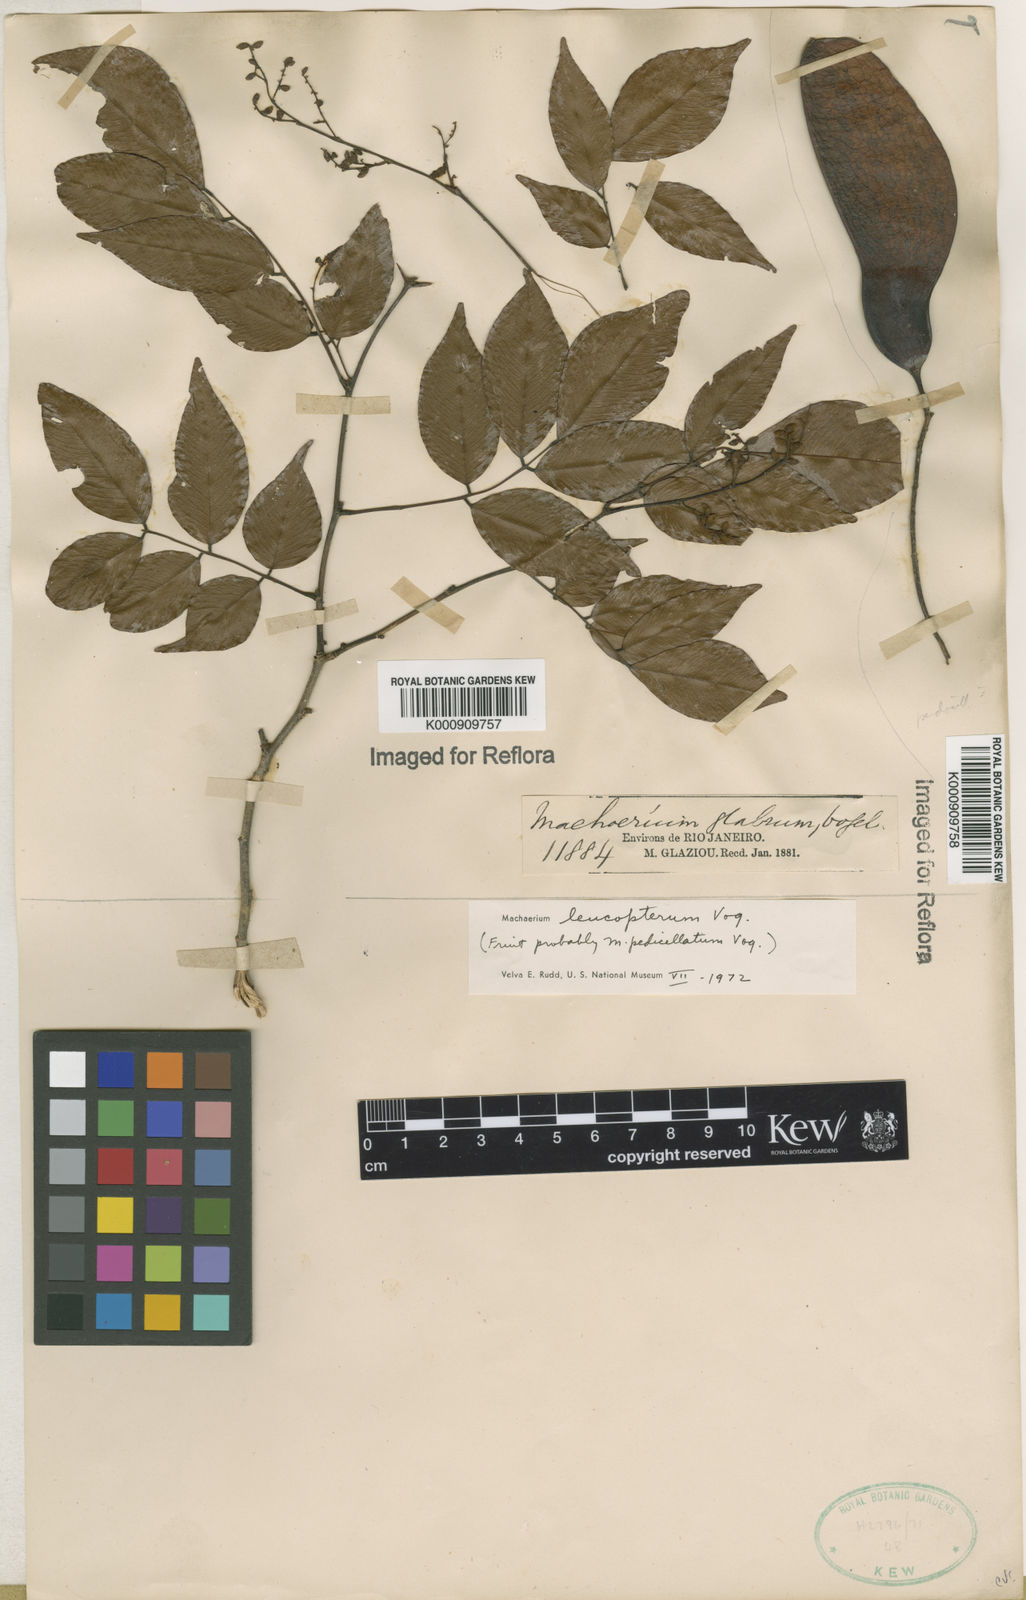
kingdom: Plantae
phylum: Tracheophyta
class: Magnoliopsida
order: Fabales
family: Fabaceae
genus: Machaerium
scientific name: Machaerium leucopterum
